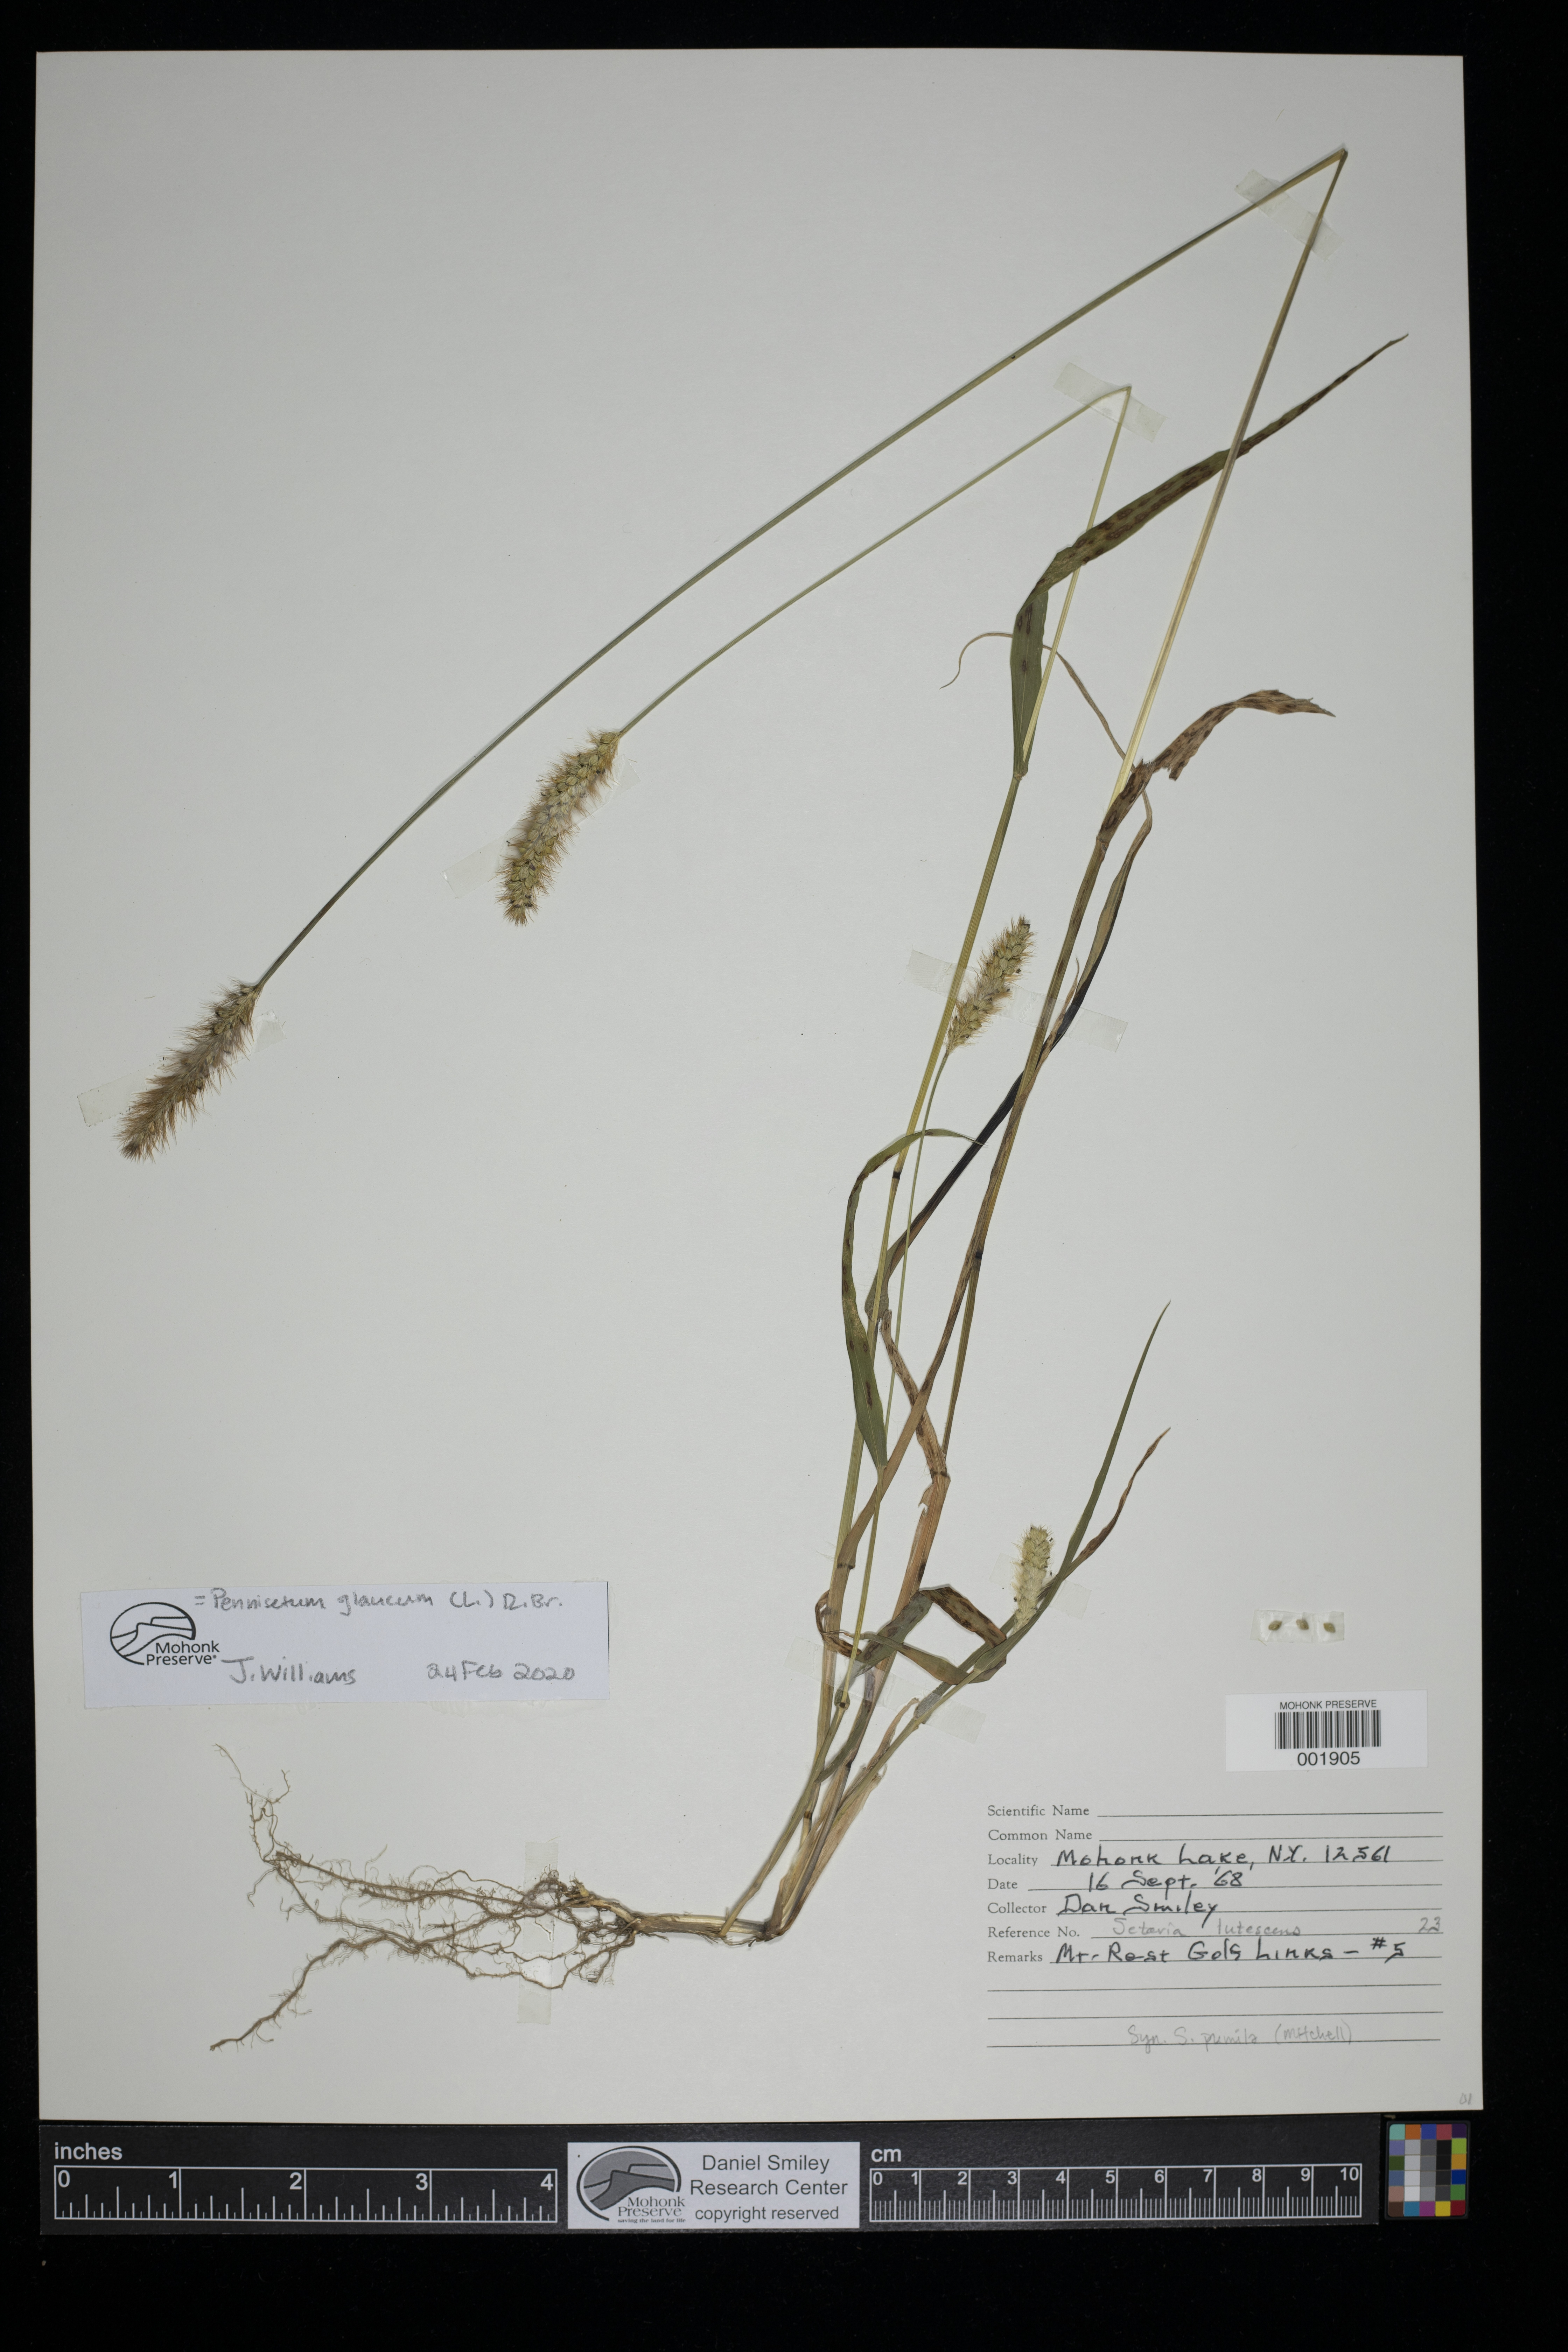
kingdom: Plantae
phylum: Tracheophyta
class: Liliopsida
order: Poales
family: Poaceae
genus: Cenchrus
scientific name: Cenchrus americanus
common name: Pearl millet
